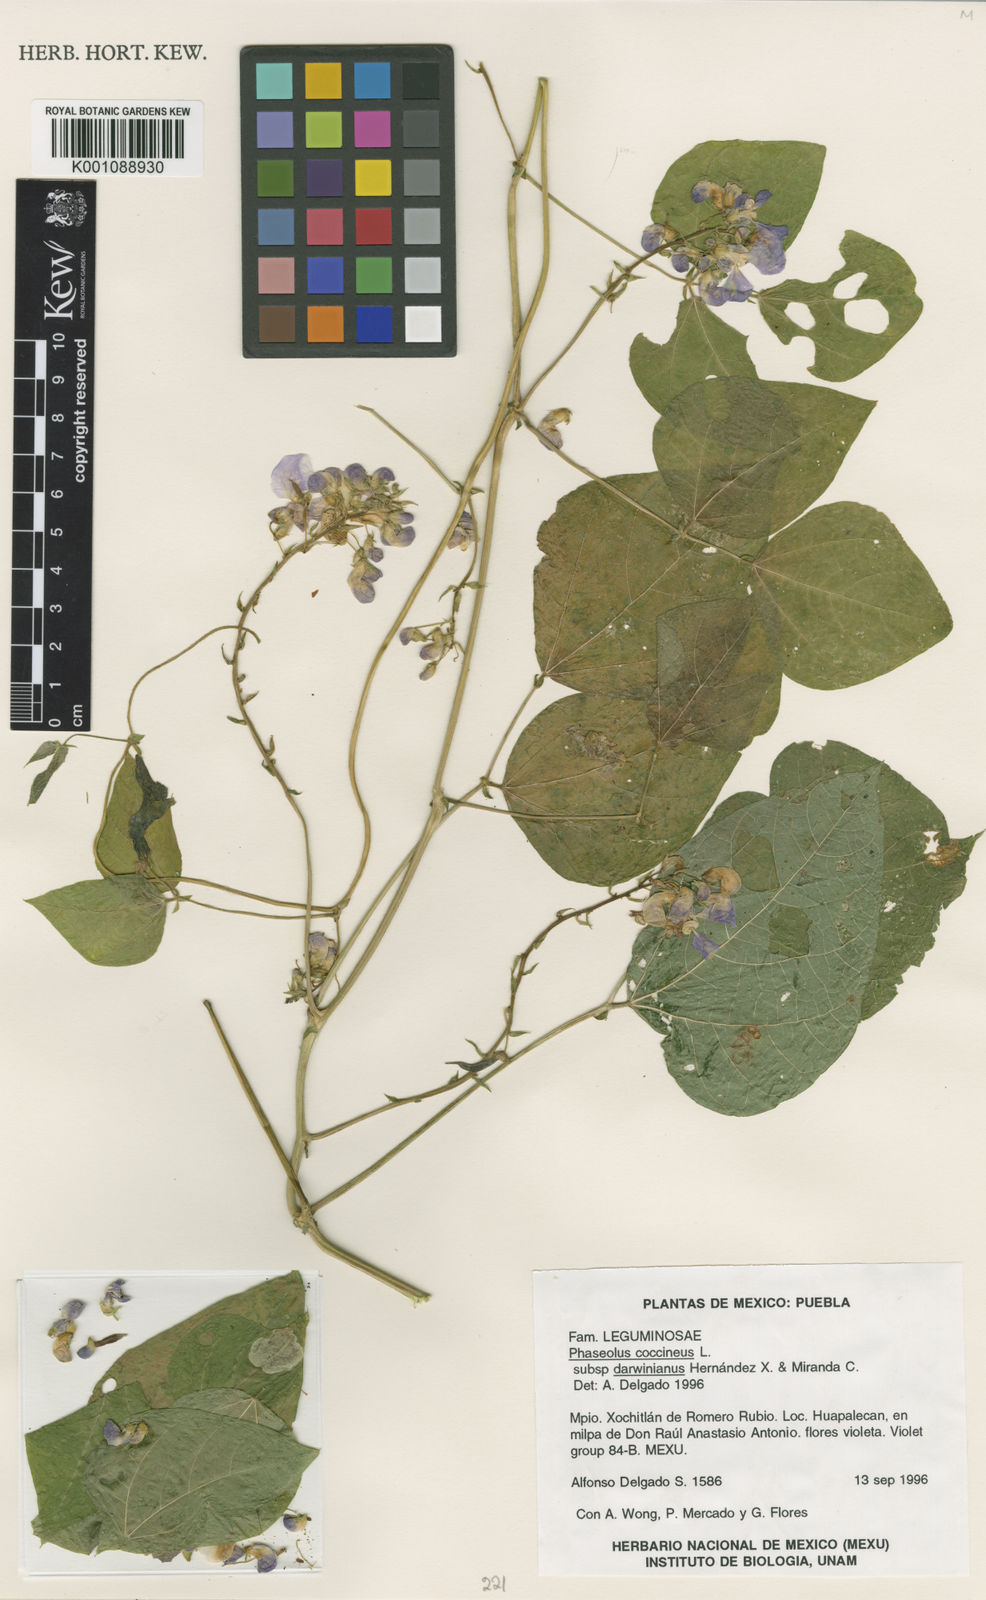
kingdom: Plantae
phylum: Tracheophyta
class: Magnoliopsida
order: Fabales
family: Fabaceae
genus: Phaseolus
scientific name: Phaseolus
